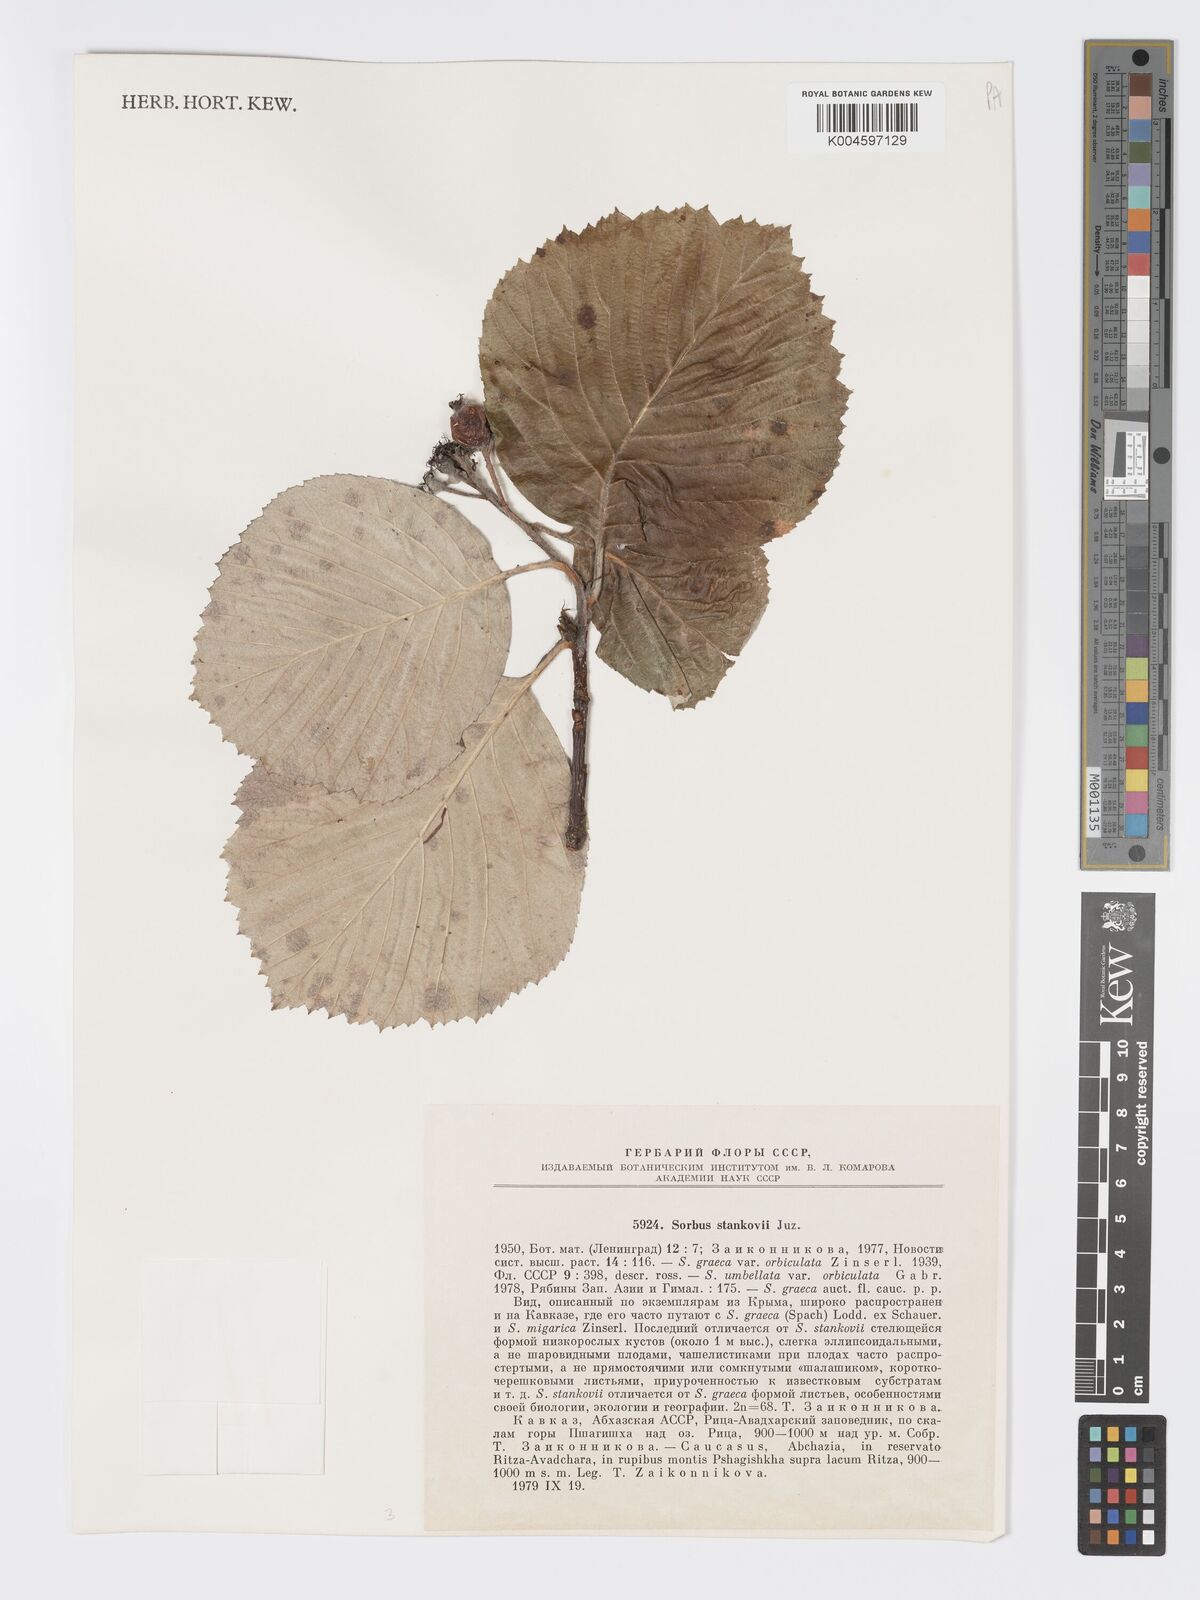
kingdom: Plantae
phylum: Tracheophyta
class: Magnoliopsida
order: Rosales
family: Rosaceae
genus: Aria
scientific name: Aria stankovii
